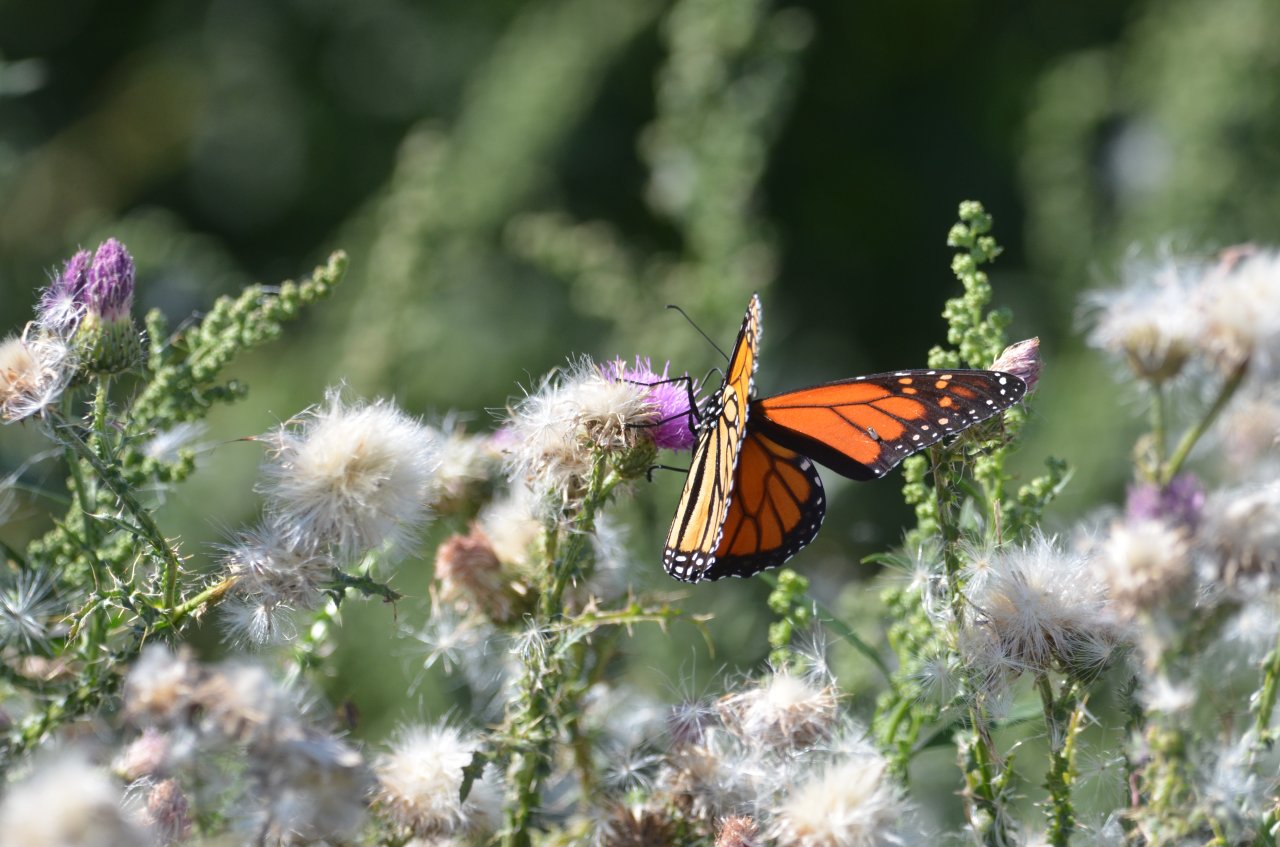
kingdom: Animalia
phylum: Arthropoda
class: Insecta
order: Lepidoptera
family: Nymphalidae
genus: Danaus
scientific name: Danaus plexippus
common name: Monarch
